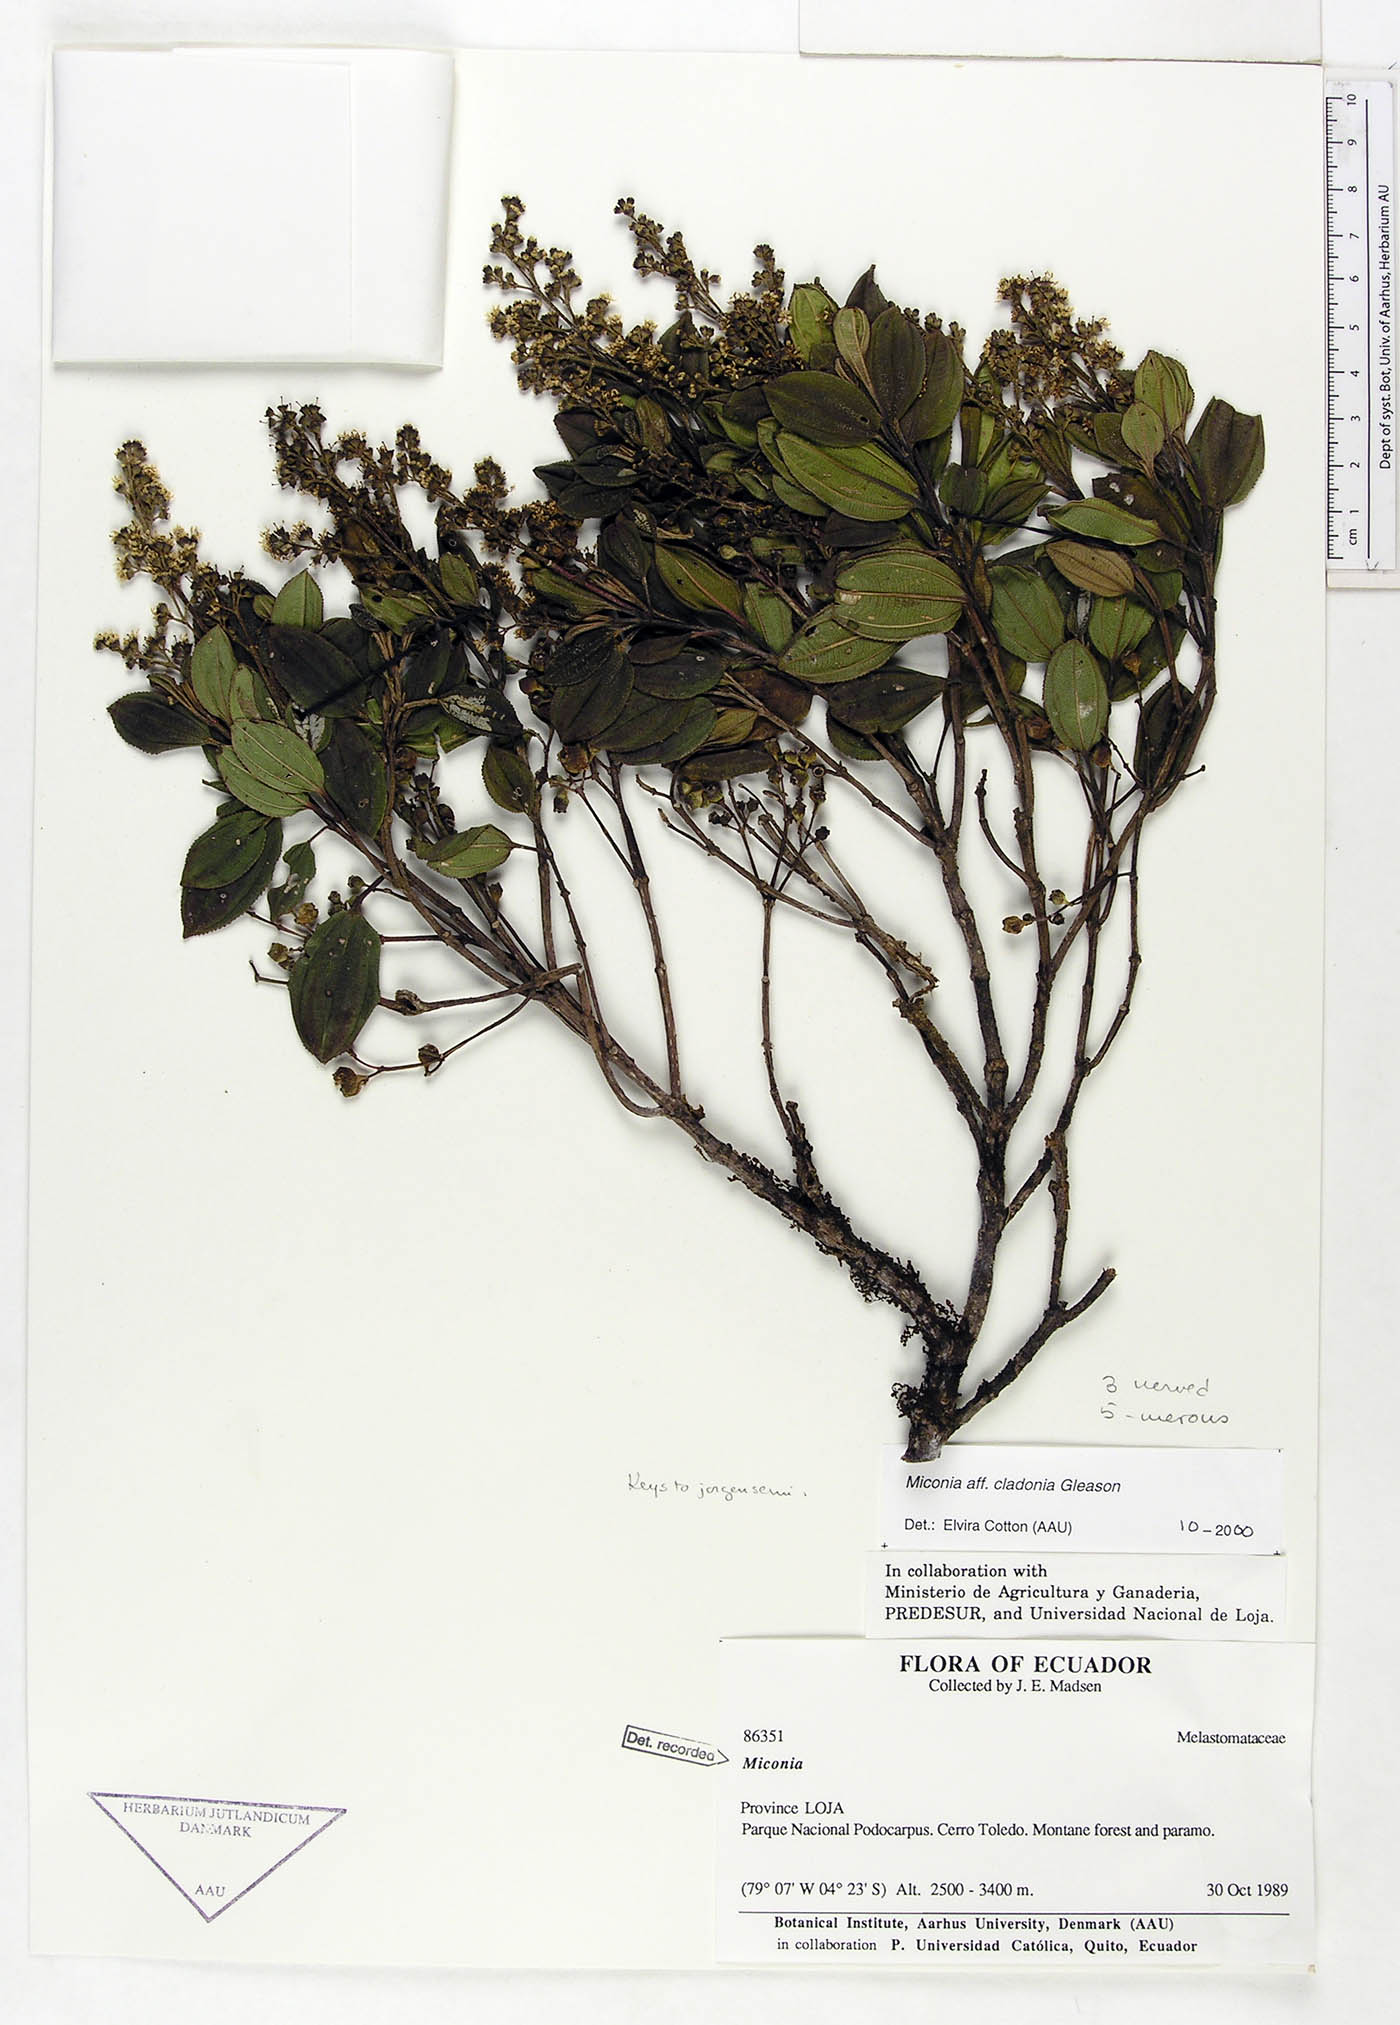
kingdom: Plantae
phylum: Tracheophyta
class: Magnoliopsida
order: Myrtales
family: Melastomataceae
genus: Miconia
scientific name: Miconia cladonia
